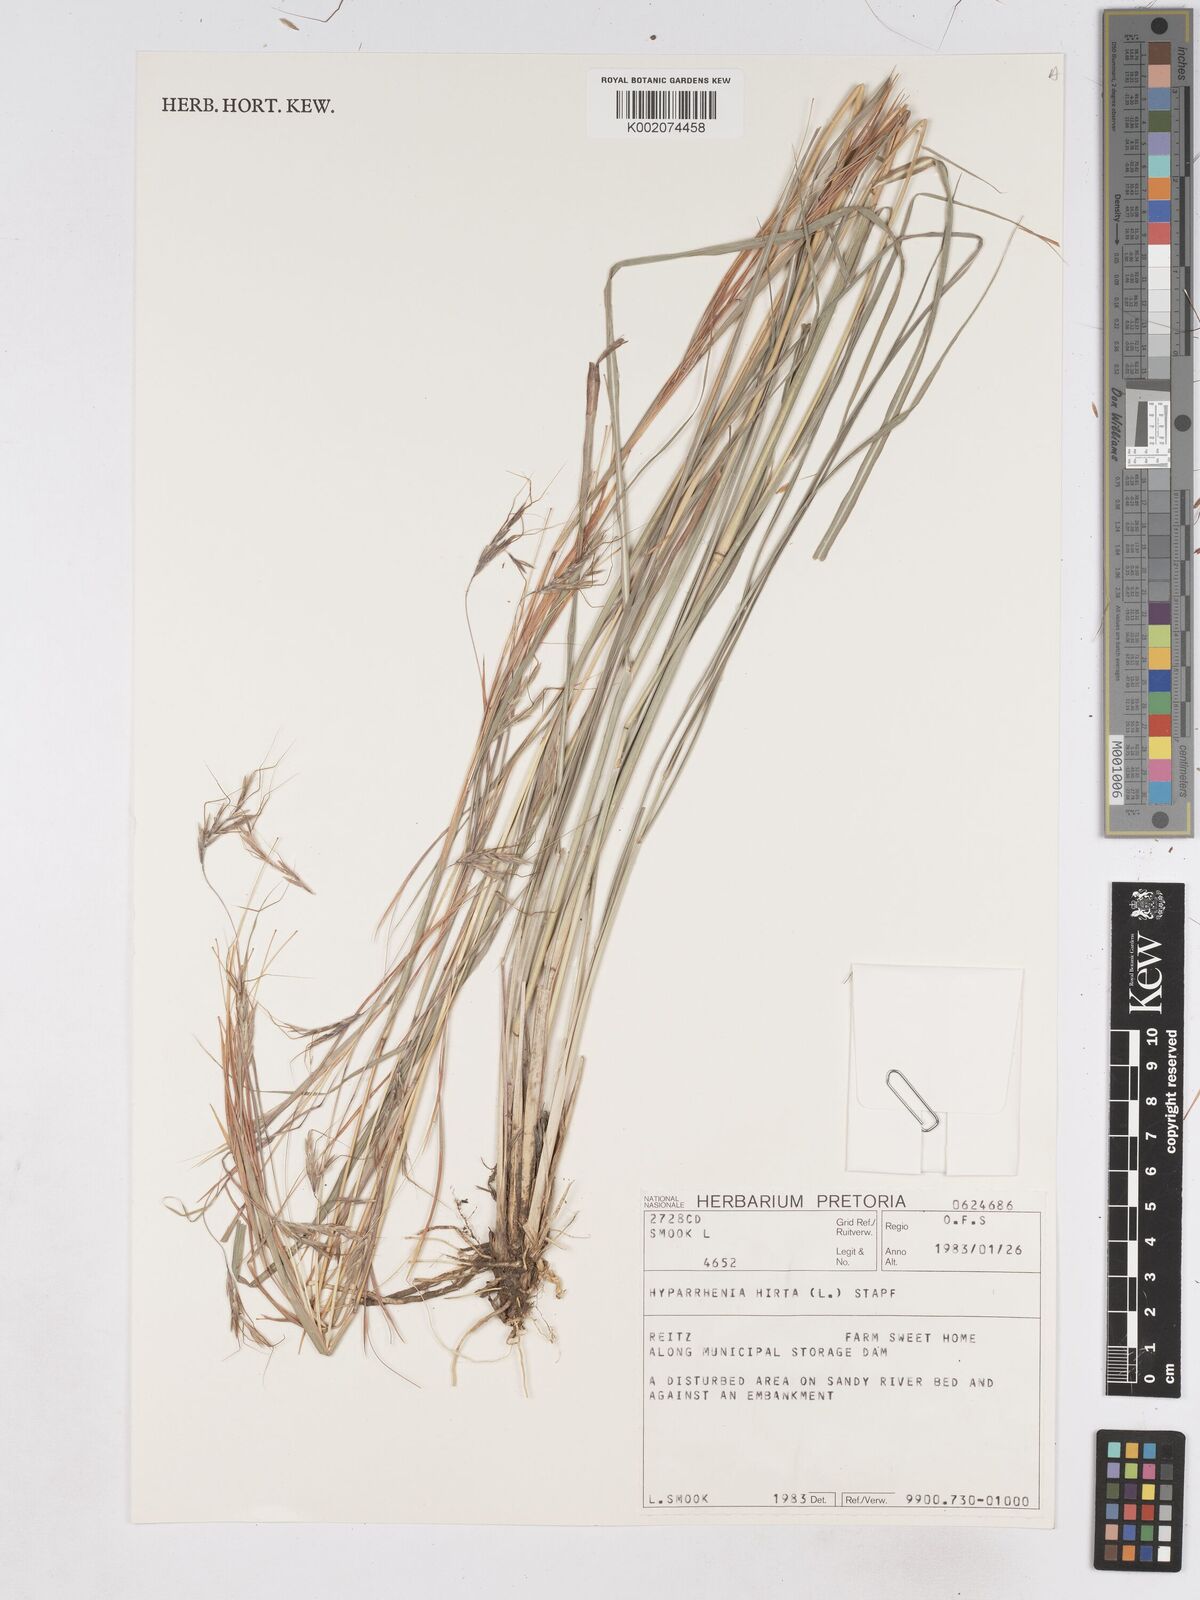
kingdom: Plantae
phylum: Tracheophyta
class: Liliopsida
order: Poales
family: Poaceae
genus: Hyparrhenia
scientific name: Hyparrhenia hirta
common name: Thatching grass
